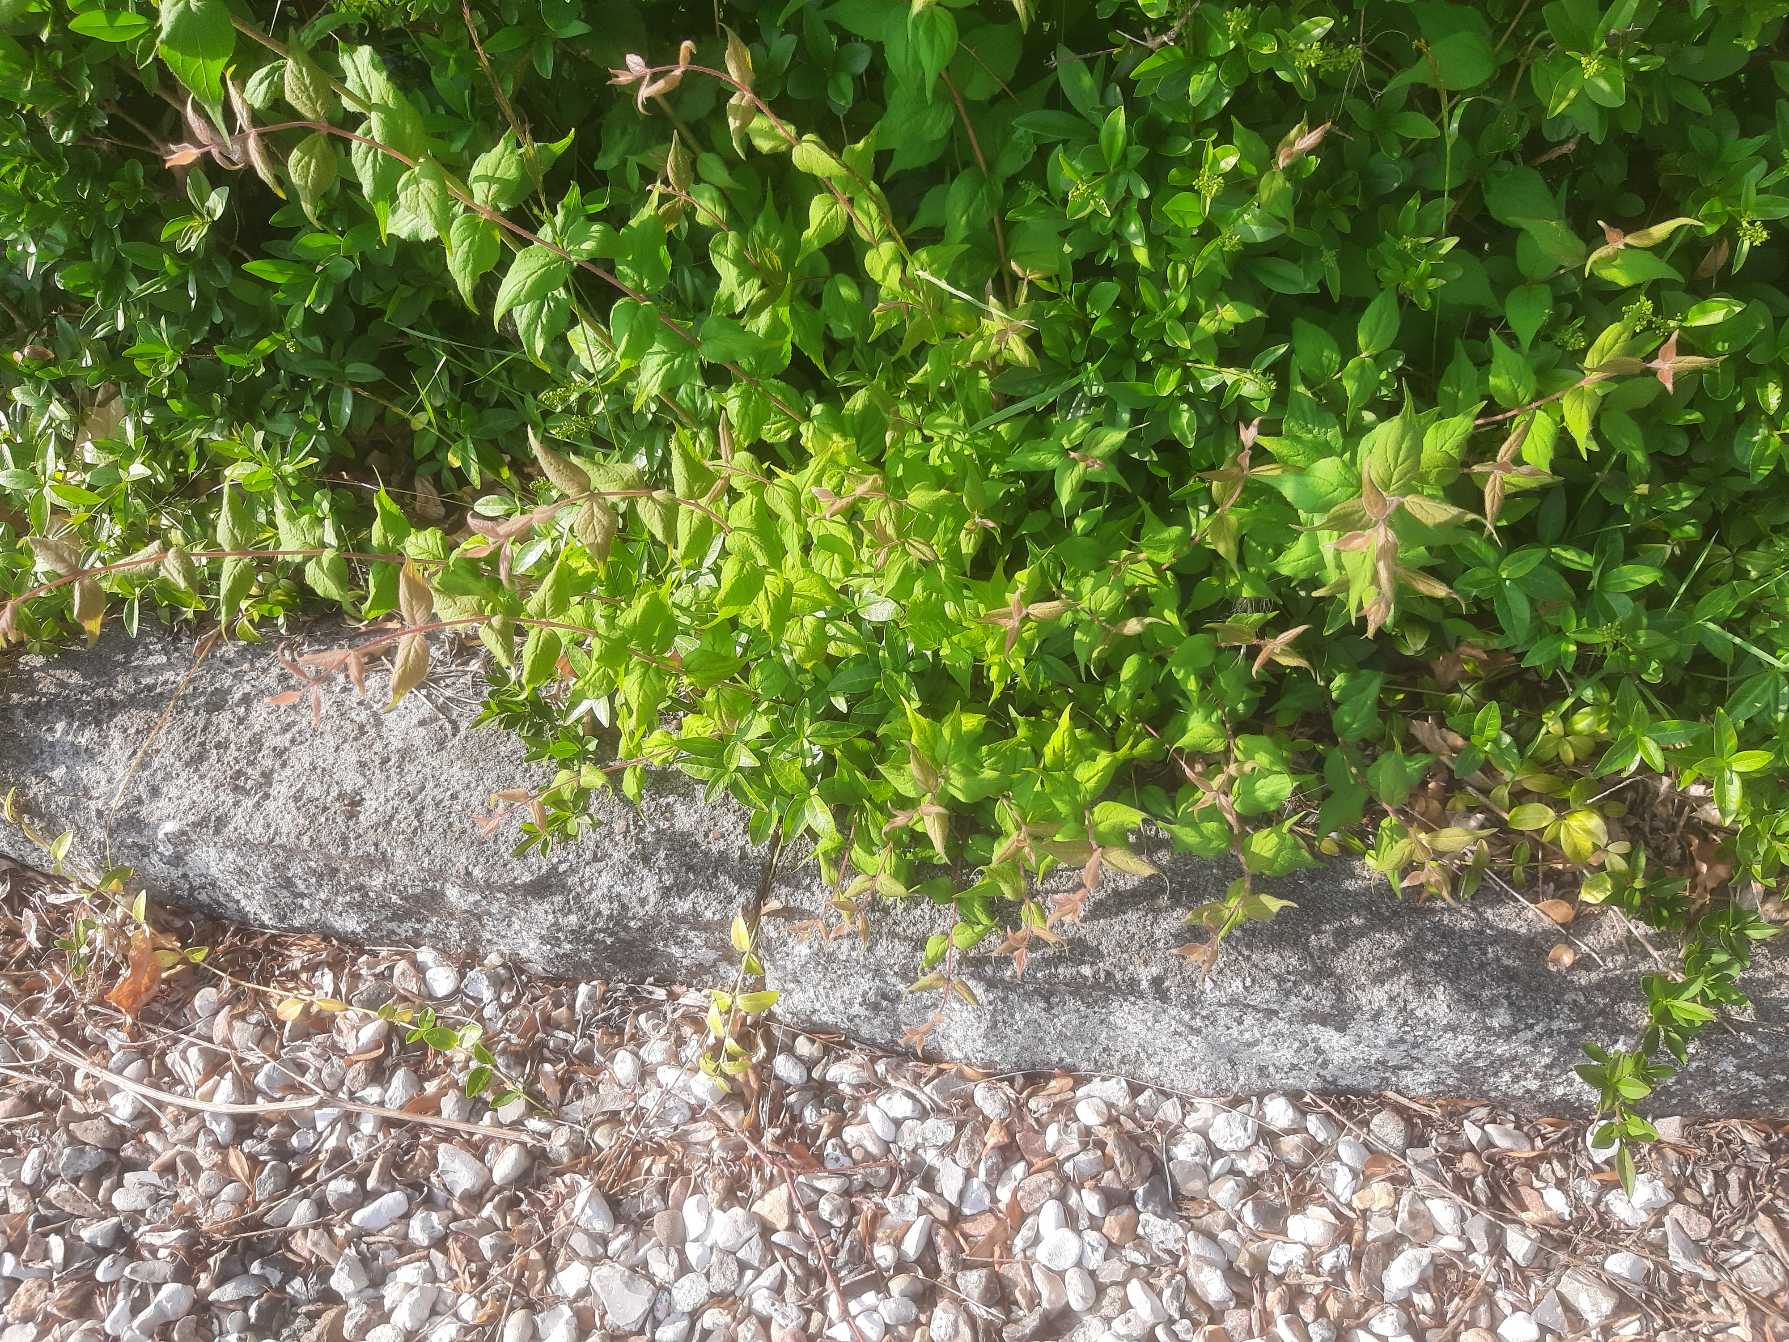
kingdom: Plantae
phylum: Tracheophyta
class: Magnoliopsida
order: Dipsacales
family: Caprifoliaceae
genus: Kolkwitzia
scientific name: Kolkwitzia amabilis
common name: Dronningebusk
